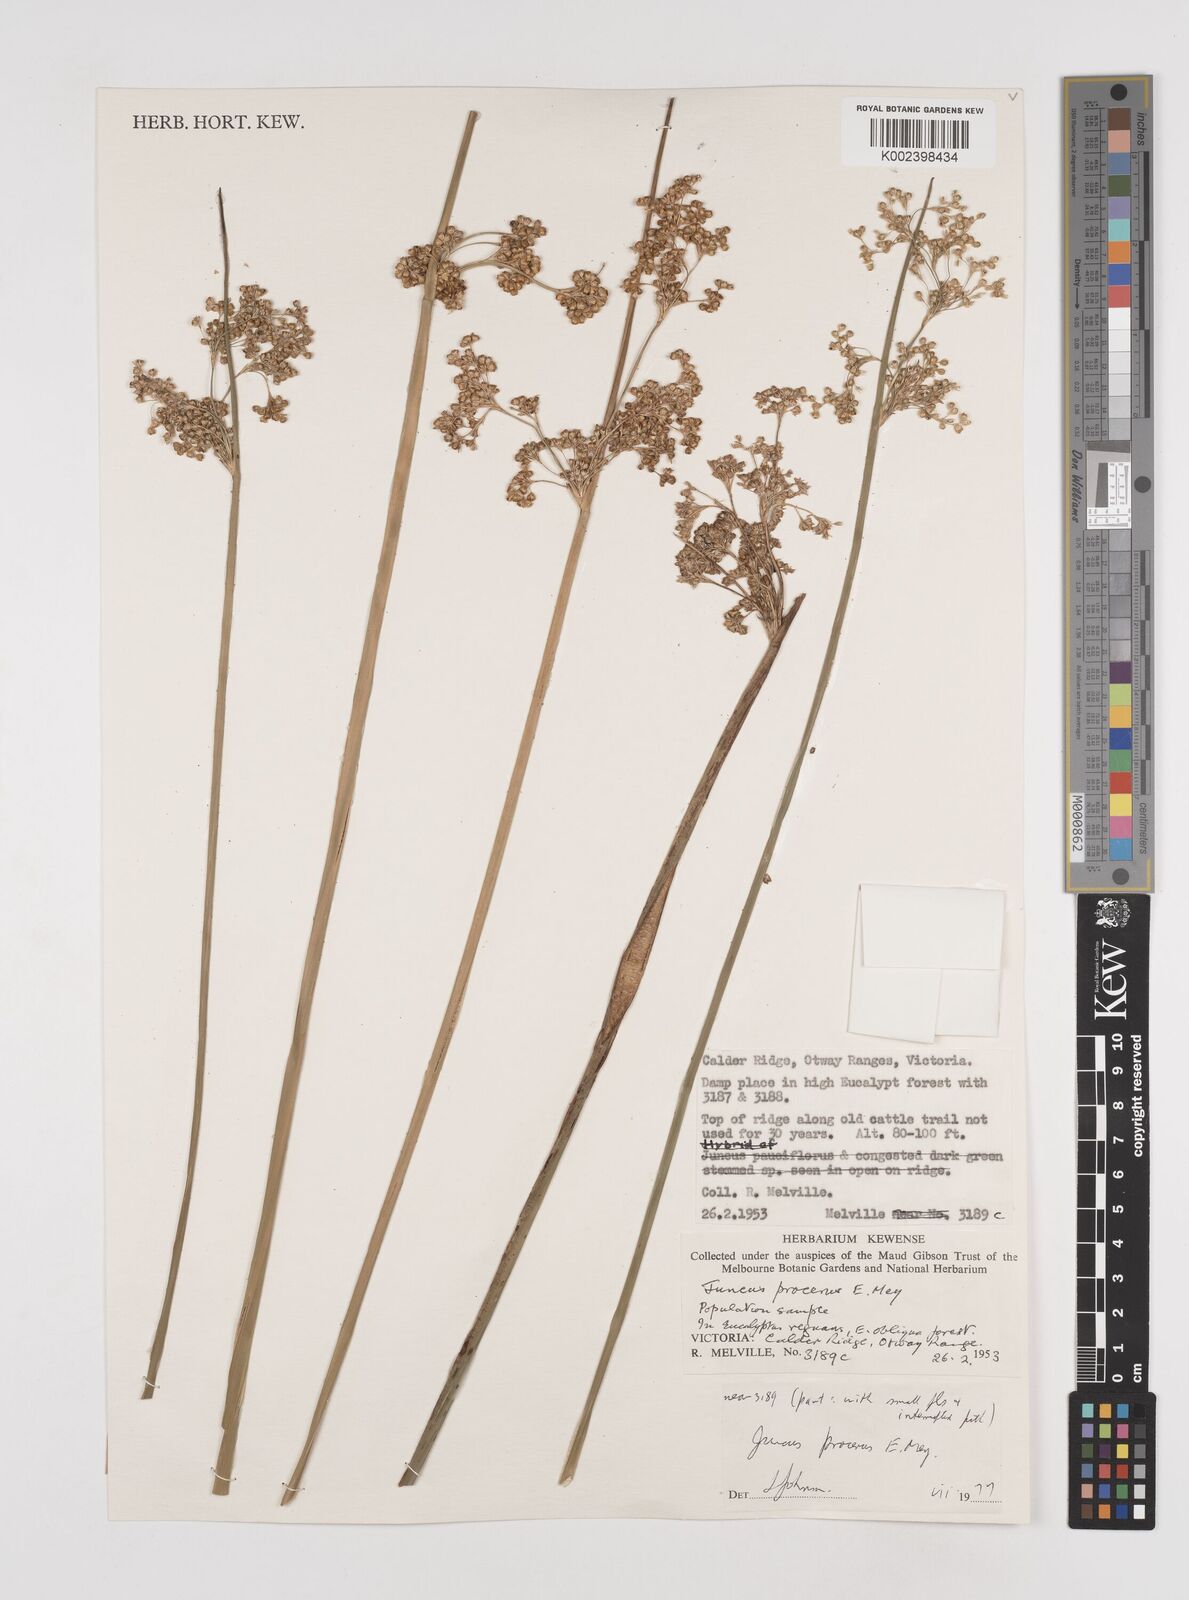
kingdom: Plantae
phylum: Tracheophyta
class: Liliopsida
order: Poales
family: Juncaceae
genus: Juncus
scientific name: Juncus procerus
